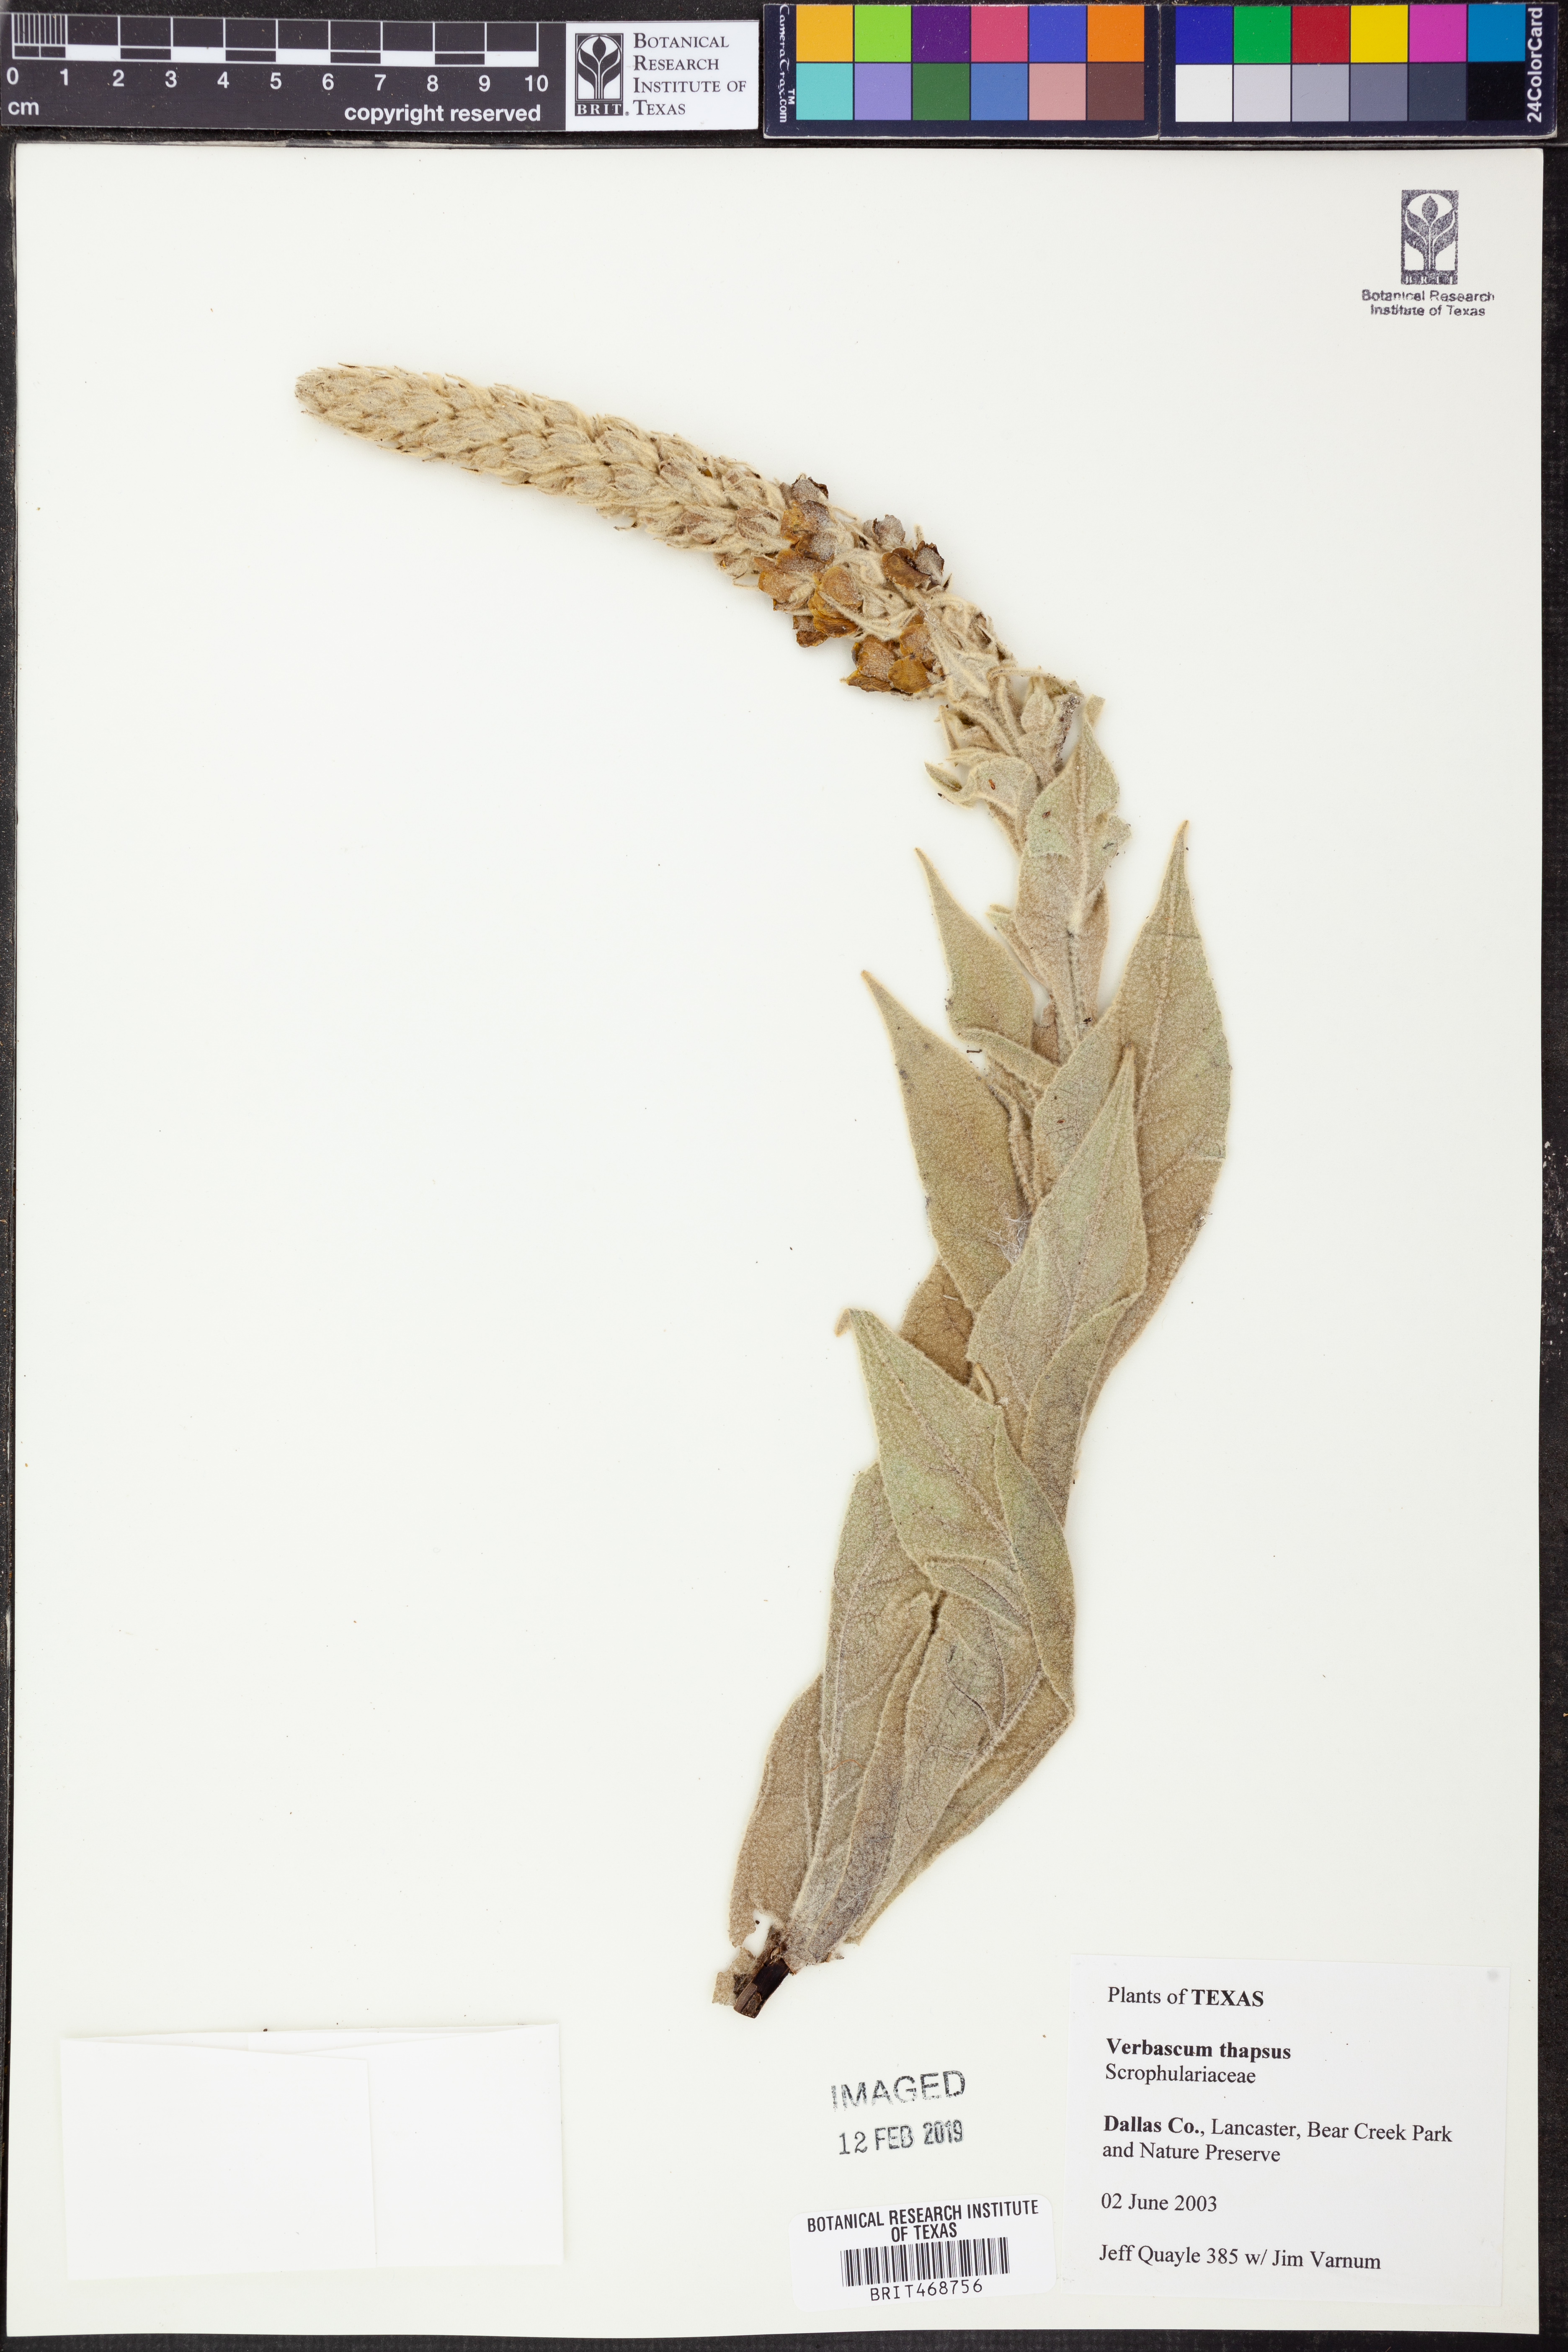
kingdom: Plantae
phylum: Tracheophyta
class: Magnoliopsida
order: Lamiales
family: Scrophulariaceae
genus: Verbascum
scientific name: Verbascum thapsus
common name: Common mullein
